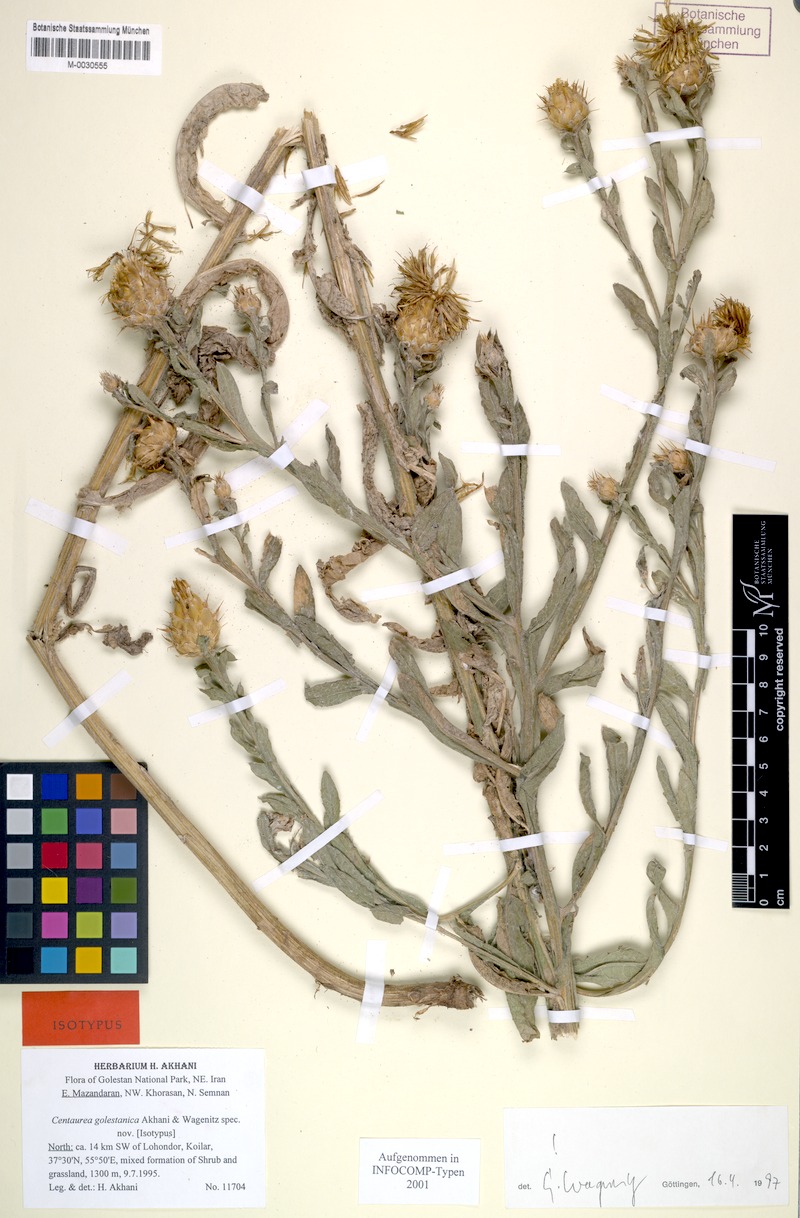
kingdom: Plantae
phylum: Tracheophyta
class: Magnoliopsida
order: Asterales
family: Asteraceae
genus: Centaurea
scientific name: Centaurea golestanica
